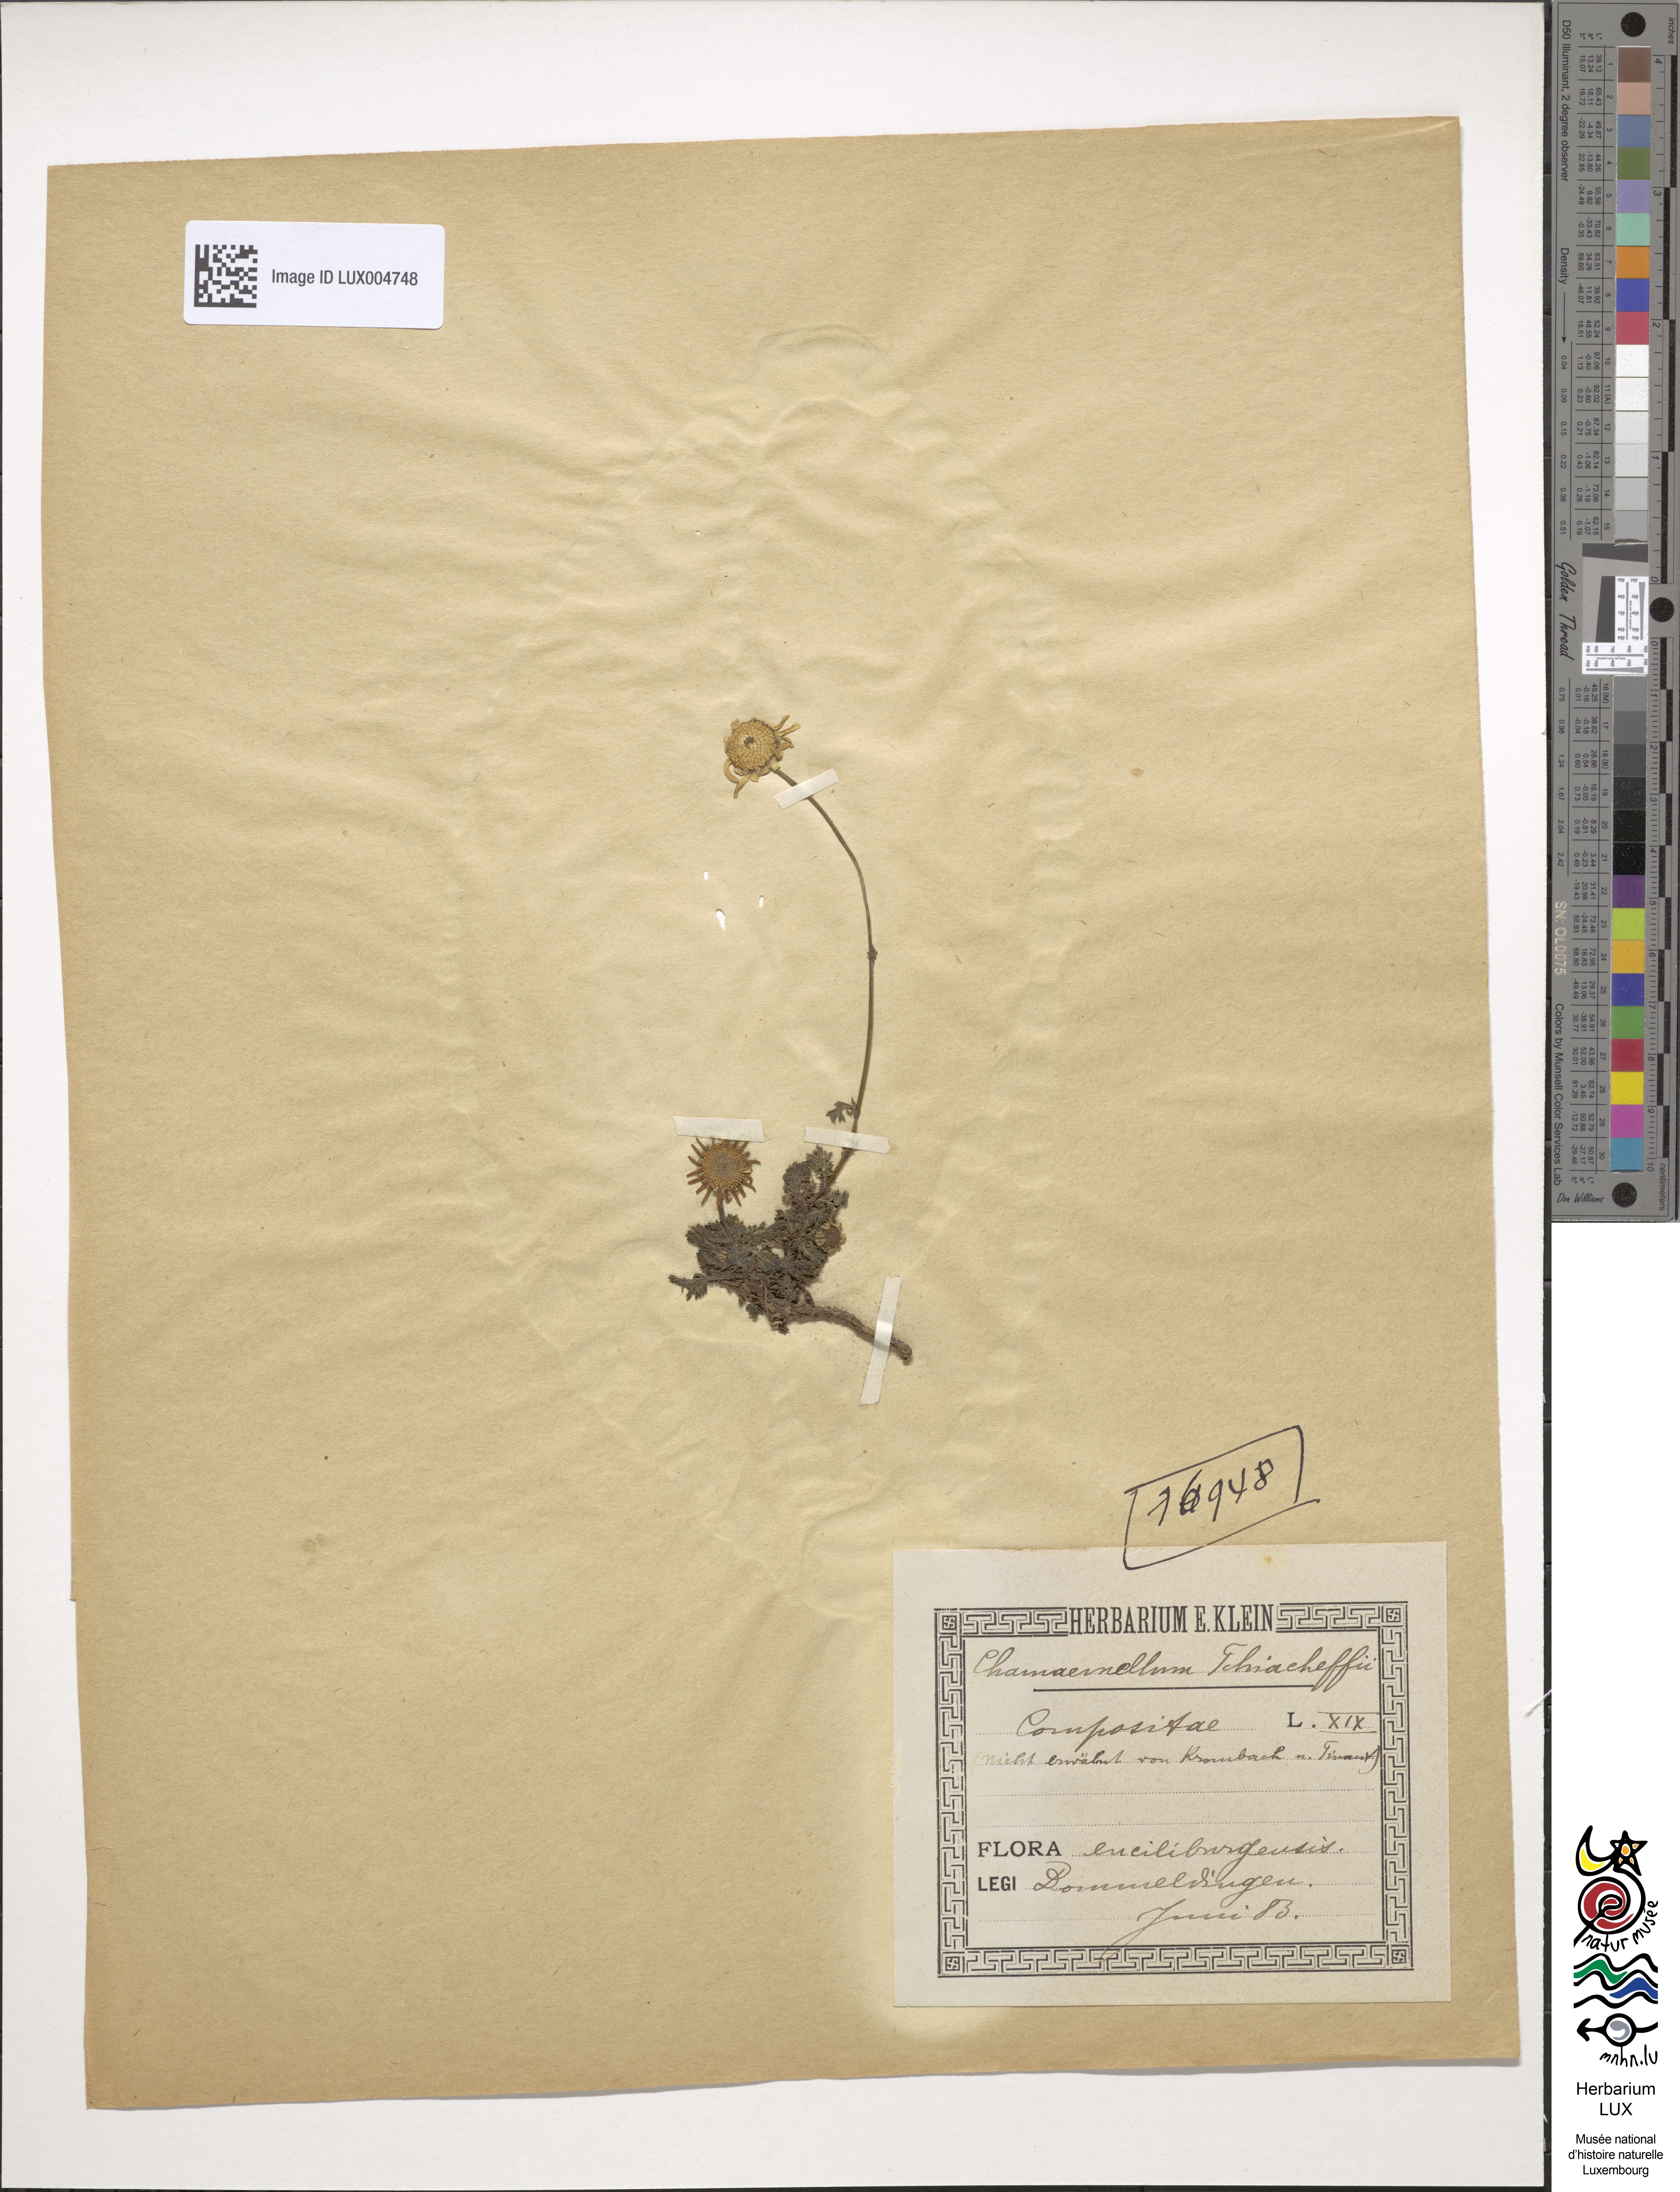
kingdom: Plantae
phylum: Tracheophyta
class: Magnoliopsida
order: Asterales
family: Asteraceae
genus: Matricaria
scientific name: Matricaria
